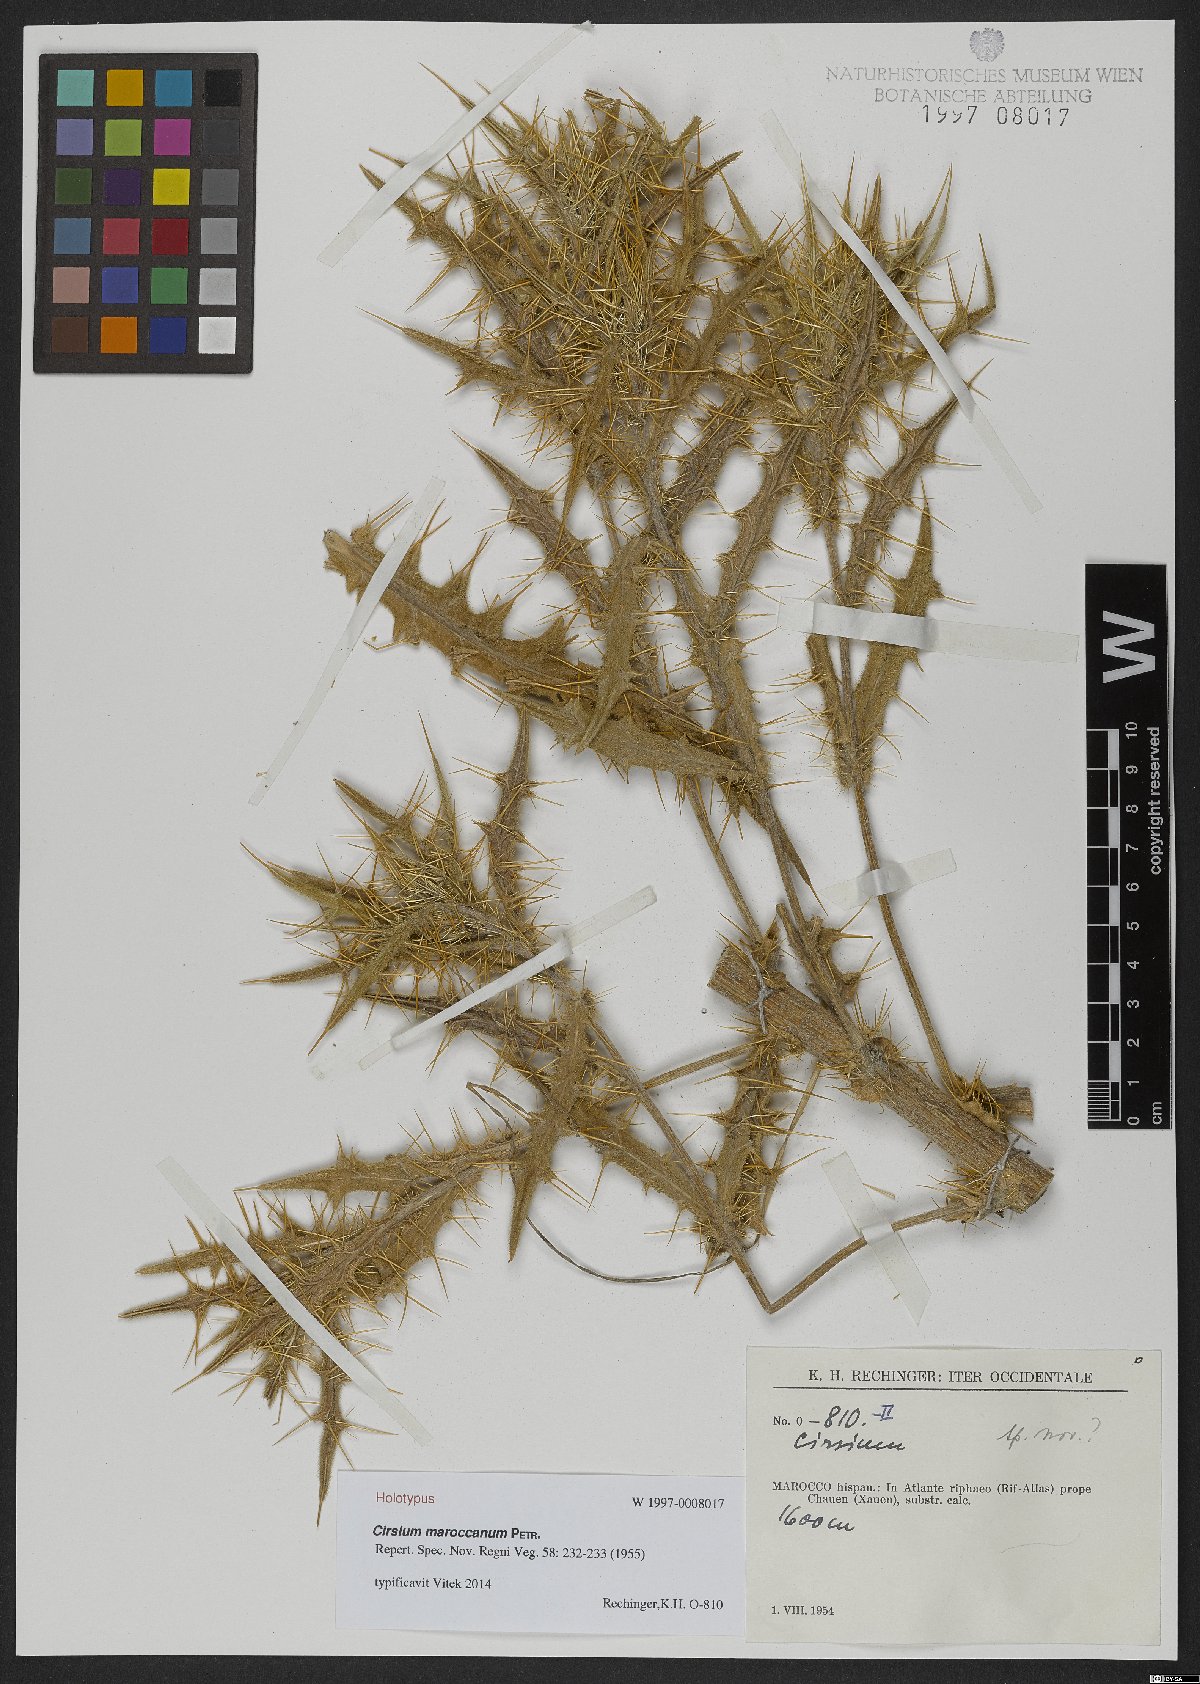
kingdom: Plantae
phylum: Tracheophyta
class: Magnoliopsida
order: Asterales
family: Asteraceae
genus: Lophiolepis
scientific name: Lophiolepis maroccana
